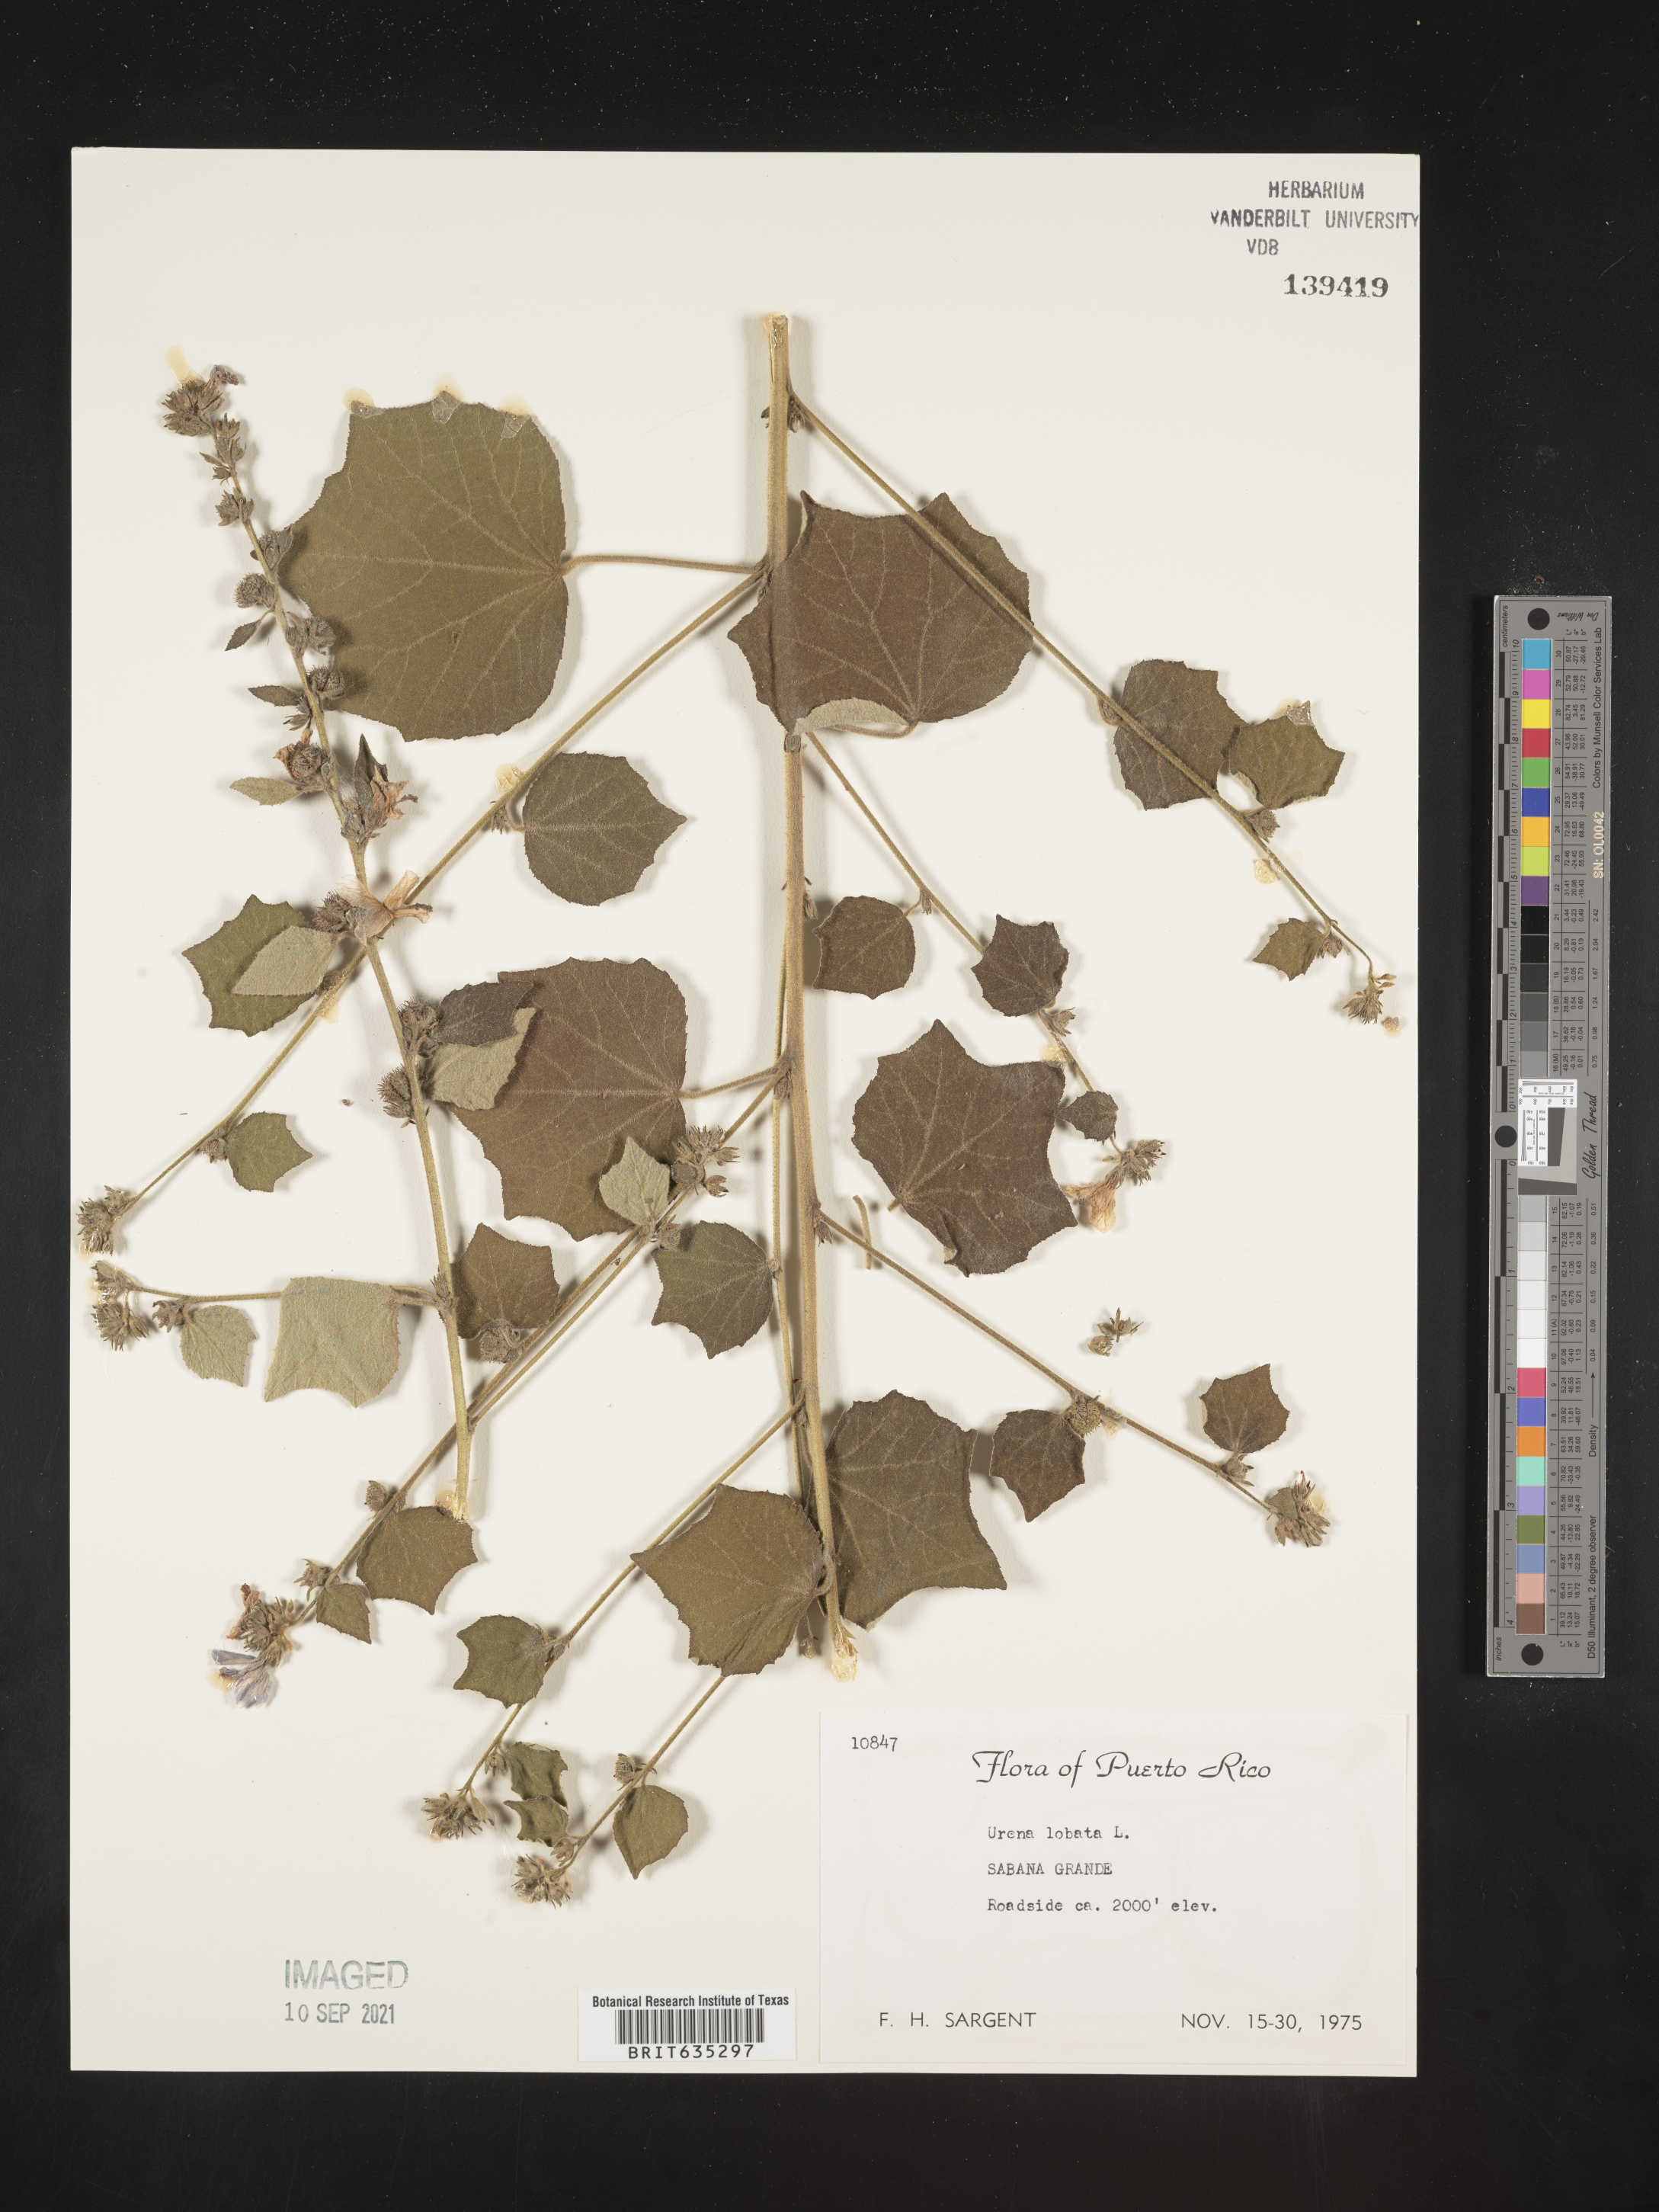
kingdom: Plantae
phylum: Tracheophyta
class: Magnoliopsida
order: Malvales
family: Malvaceae
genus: Urena
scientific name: Urena
